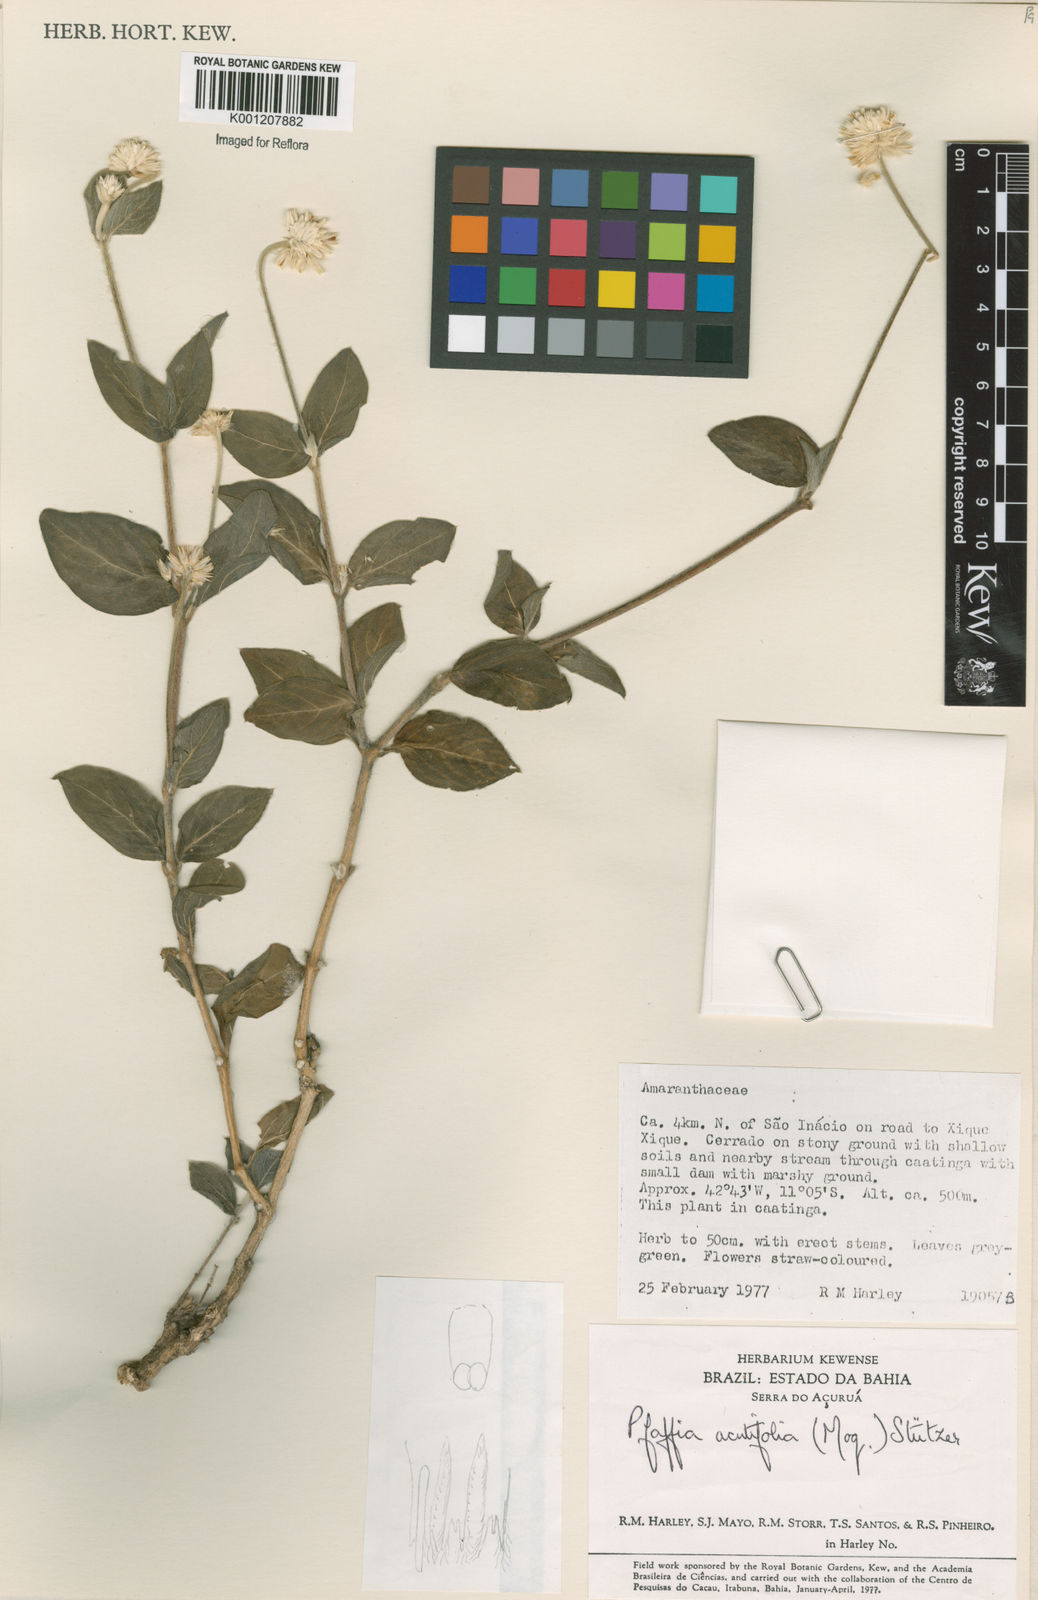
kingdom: Plantae
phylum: Tracheophyta
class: Magnoliopsida
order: Caryophyllales
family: Amaranthaceae
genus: Pfaffia
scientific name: Pfaffia
